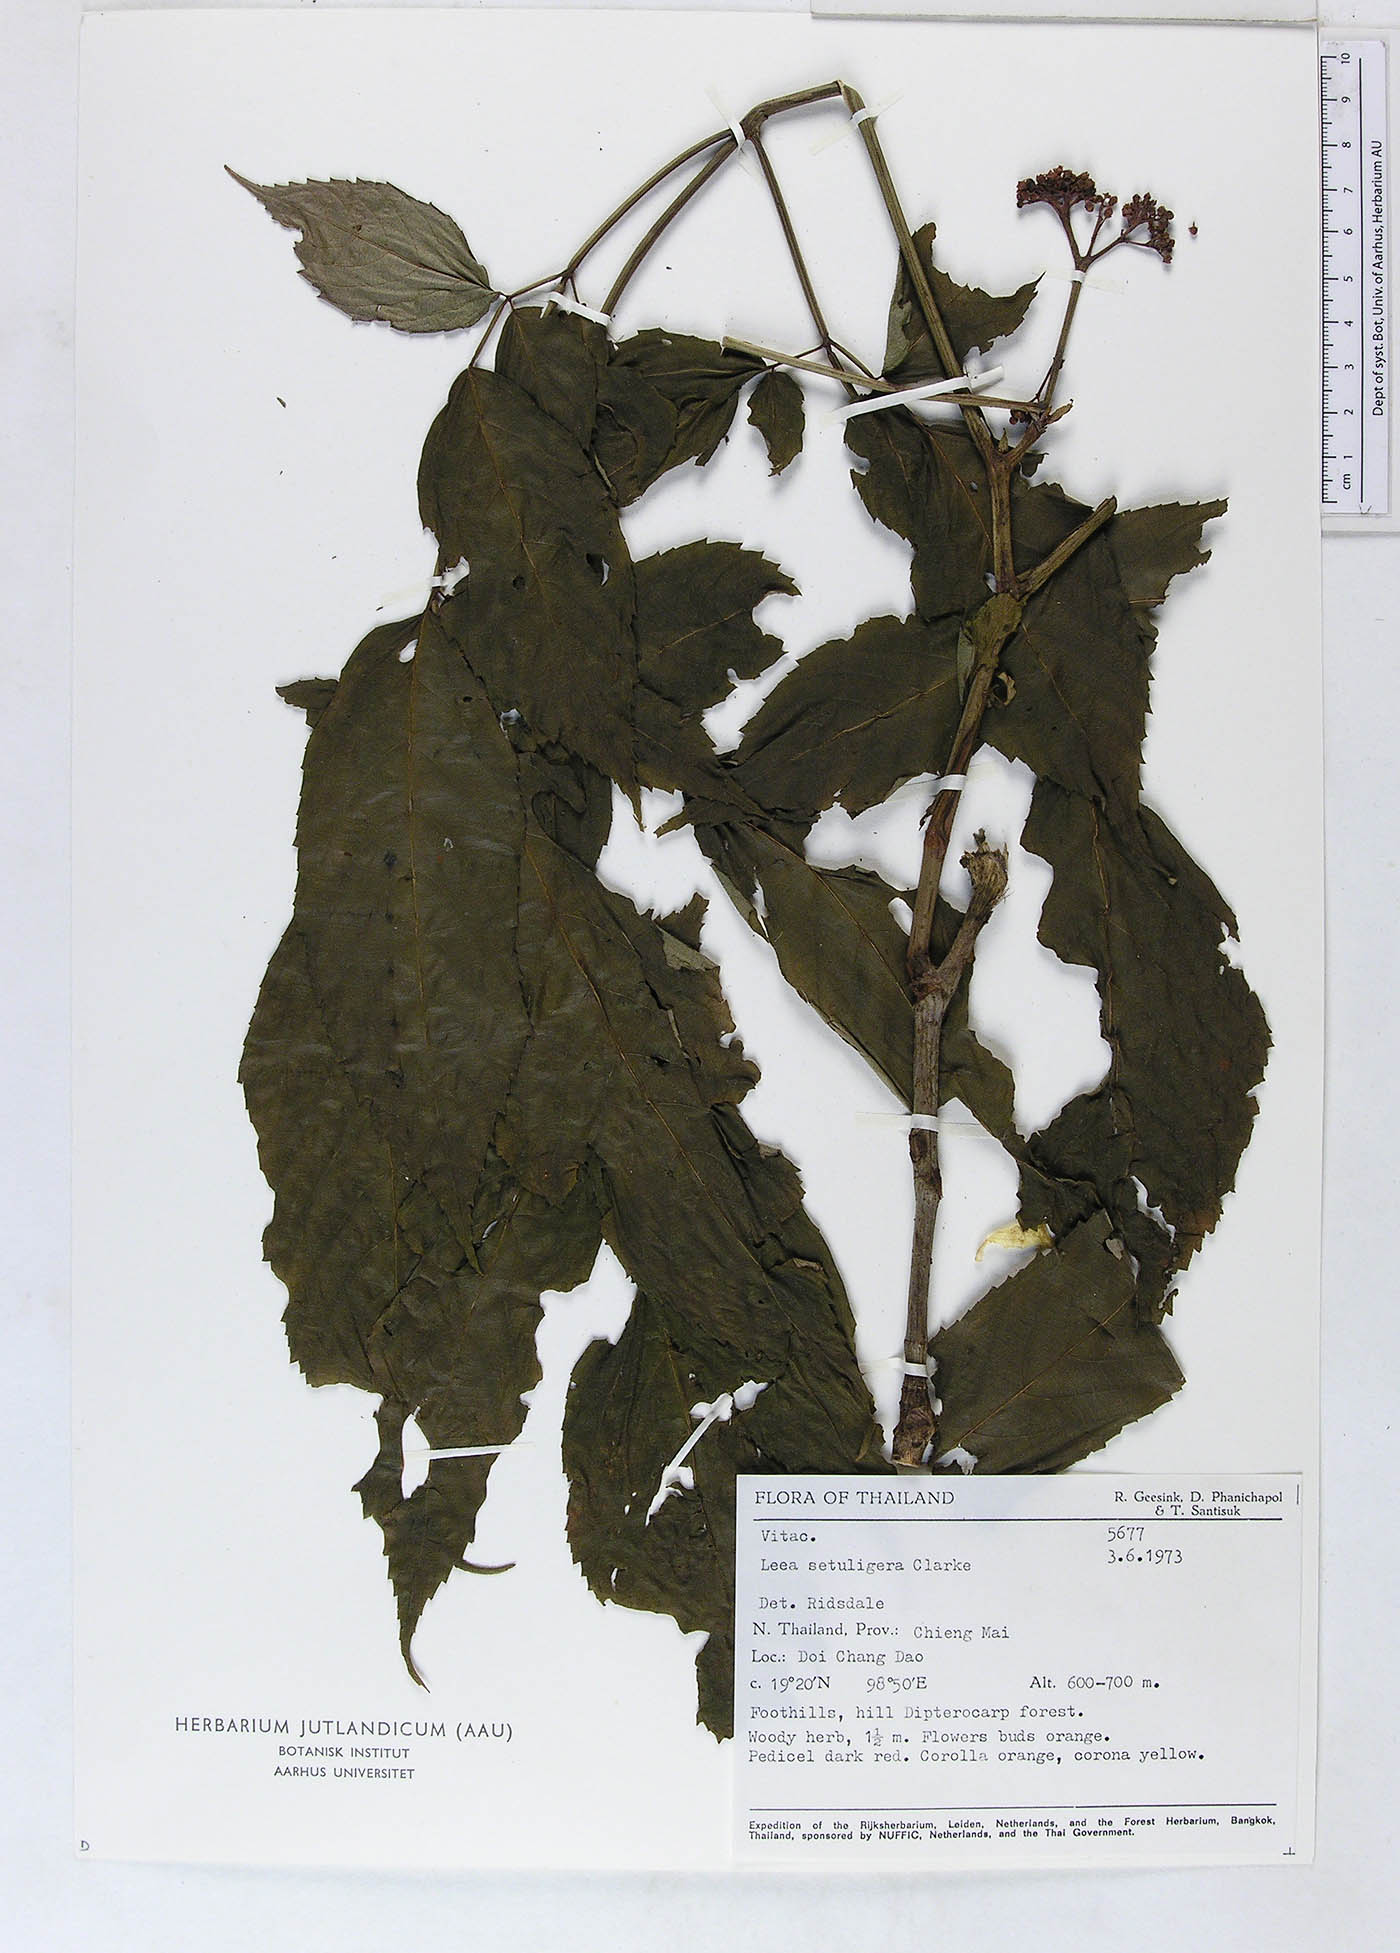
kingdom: Plantae
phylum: Tracheophyta
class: Magnoliopsida
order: Vitales
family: Vitaceae
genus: Leea
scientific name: Leea setuligera
